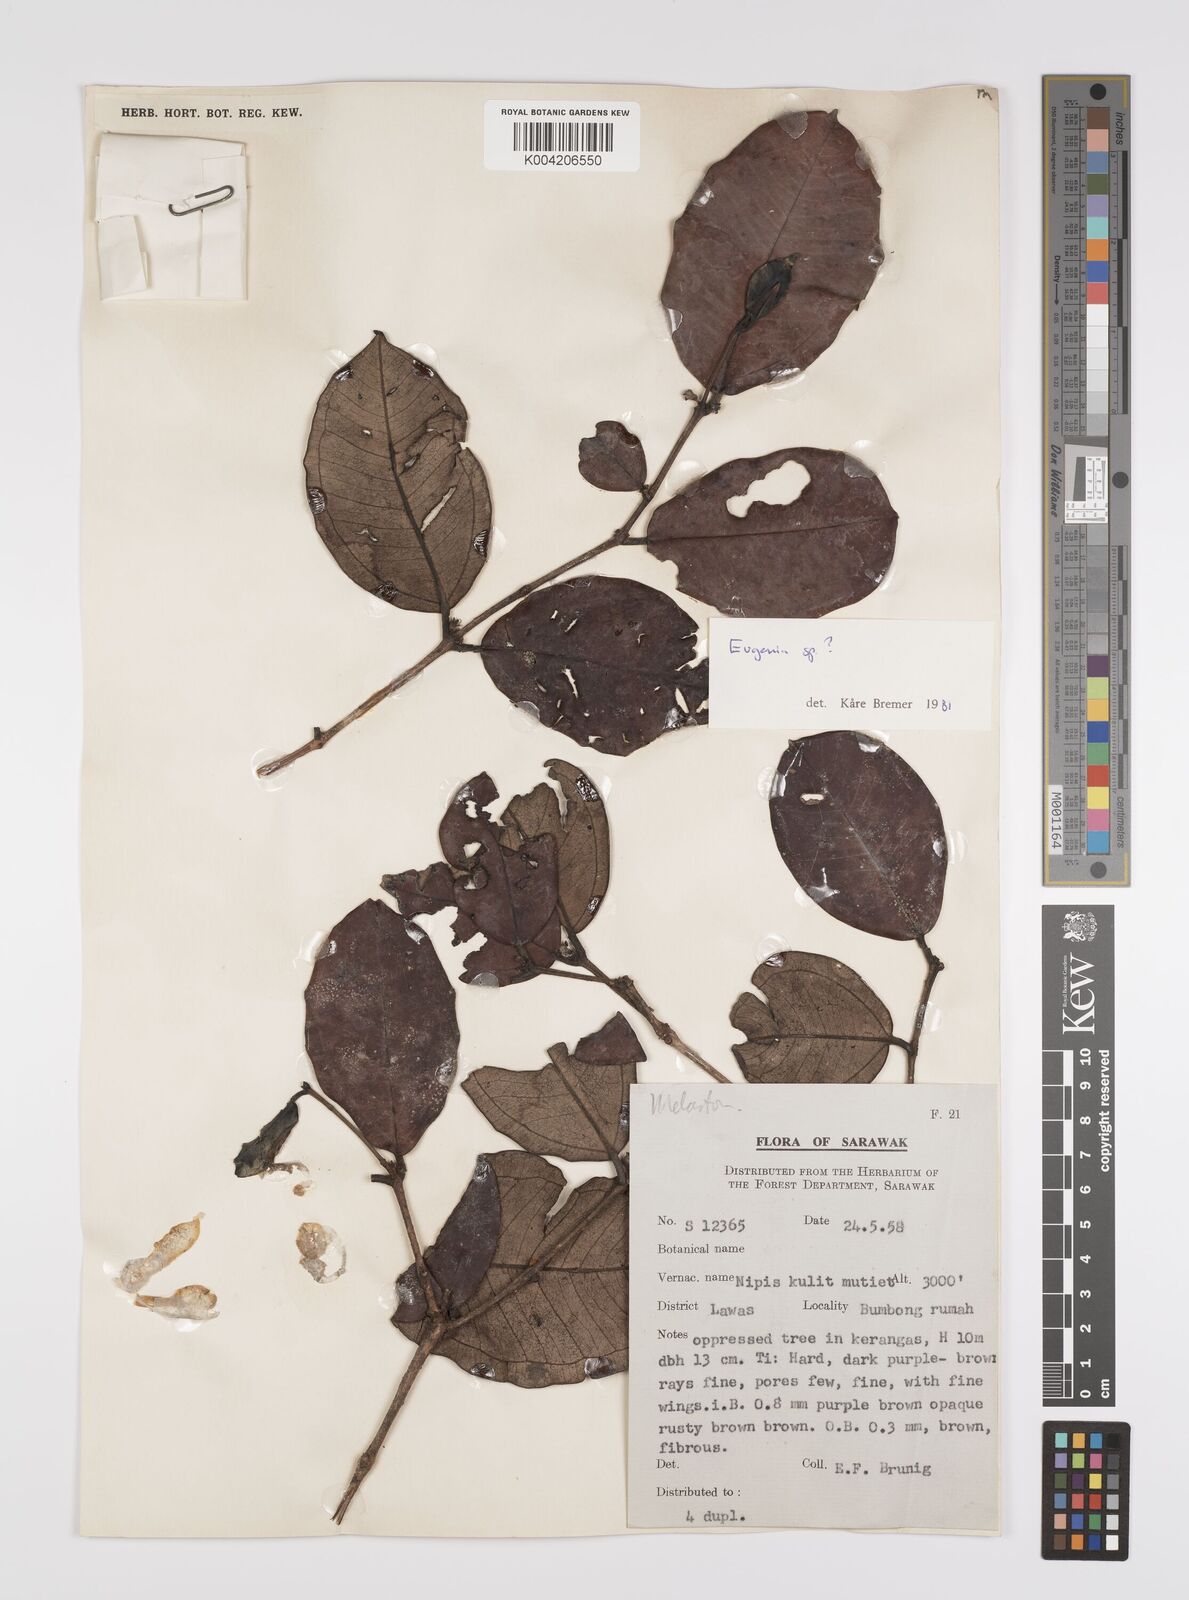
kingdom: Plantae
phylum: Tracheophyta
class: Magnoliopsida
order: Myrtales
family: Myrtaceae
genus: Rhodamnia
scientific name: Rhodamnia mulleri
